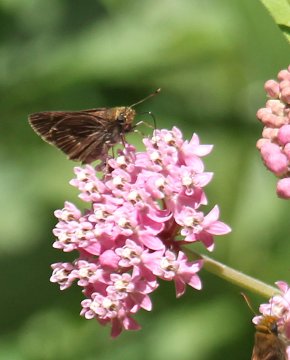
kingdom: Animalia
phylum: Arthropoda
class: Insecta
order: Lepidoptera
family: Hesperiidae
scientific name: Hesperiidae
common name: Skippers
